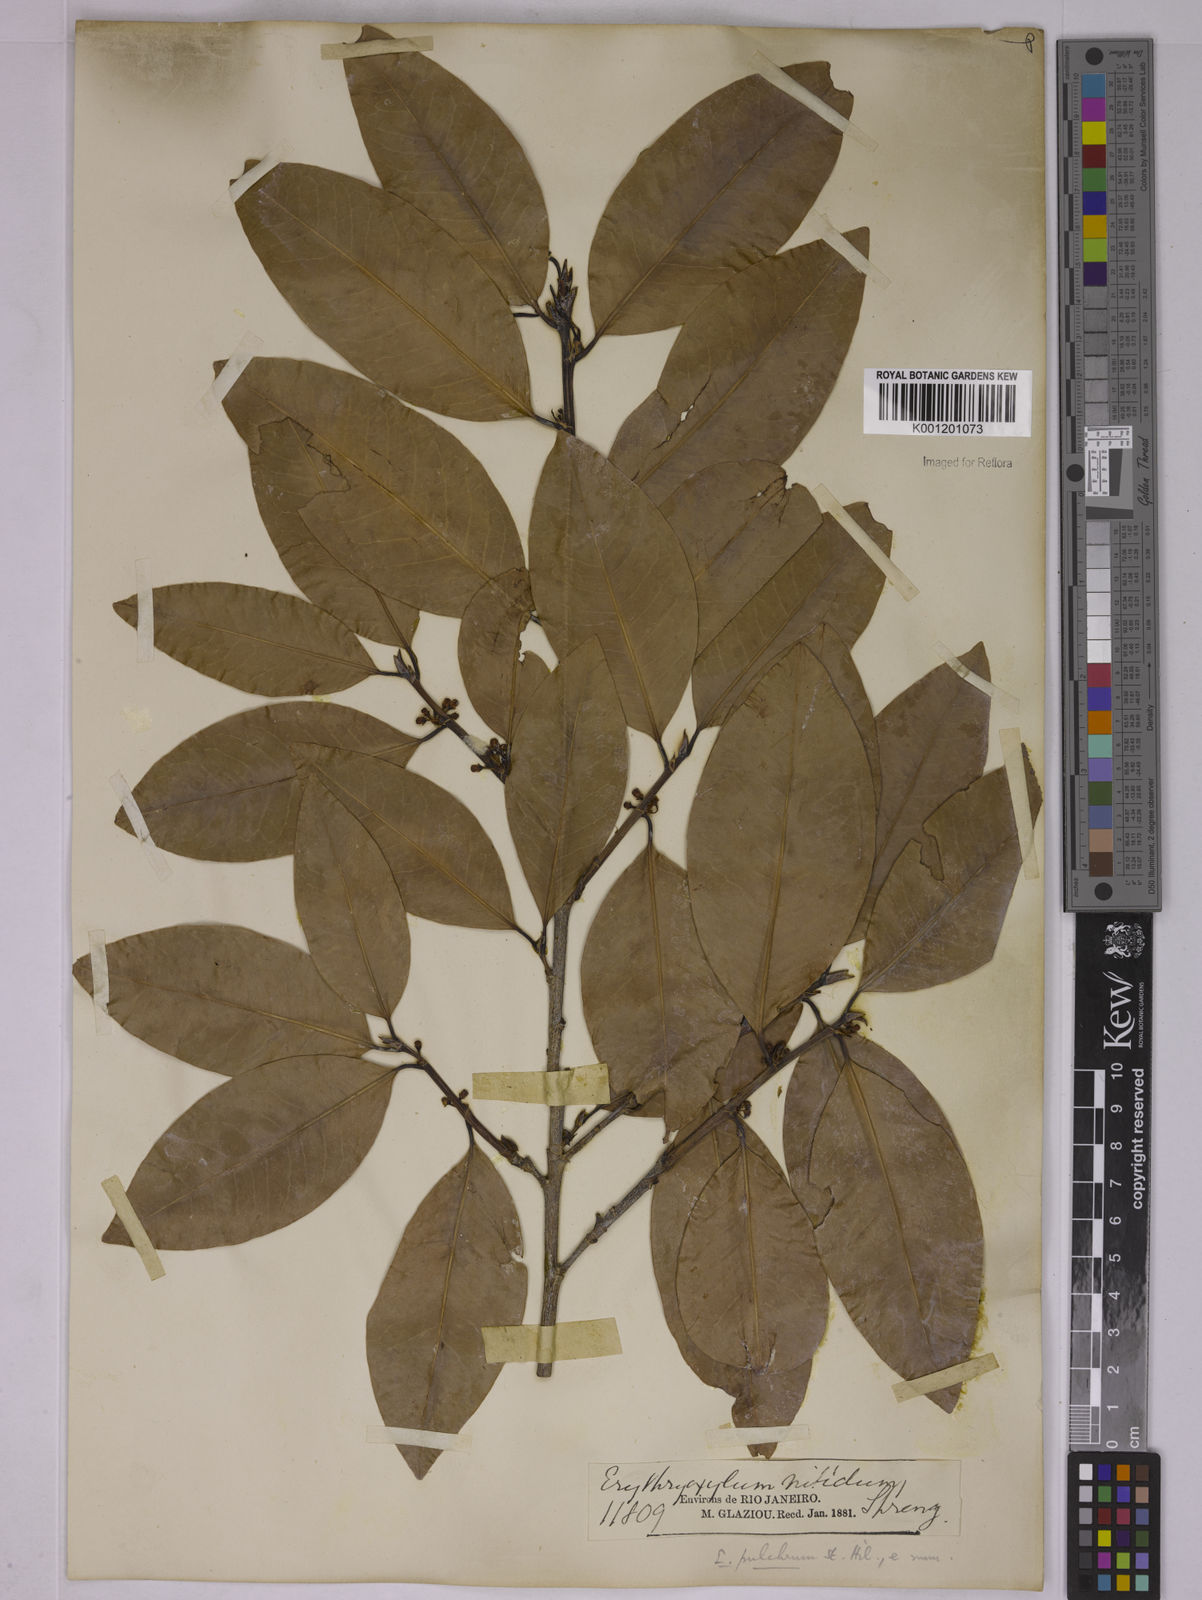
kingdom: Plantae
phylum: Tracheophyta
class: Magnoliopsida
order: Malpighiales
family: Erythroxylaceae
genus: Erythroxylum
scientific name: Erythroxylum pulchrum
